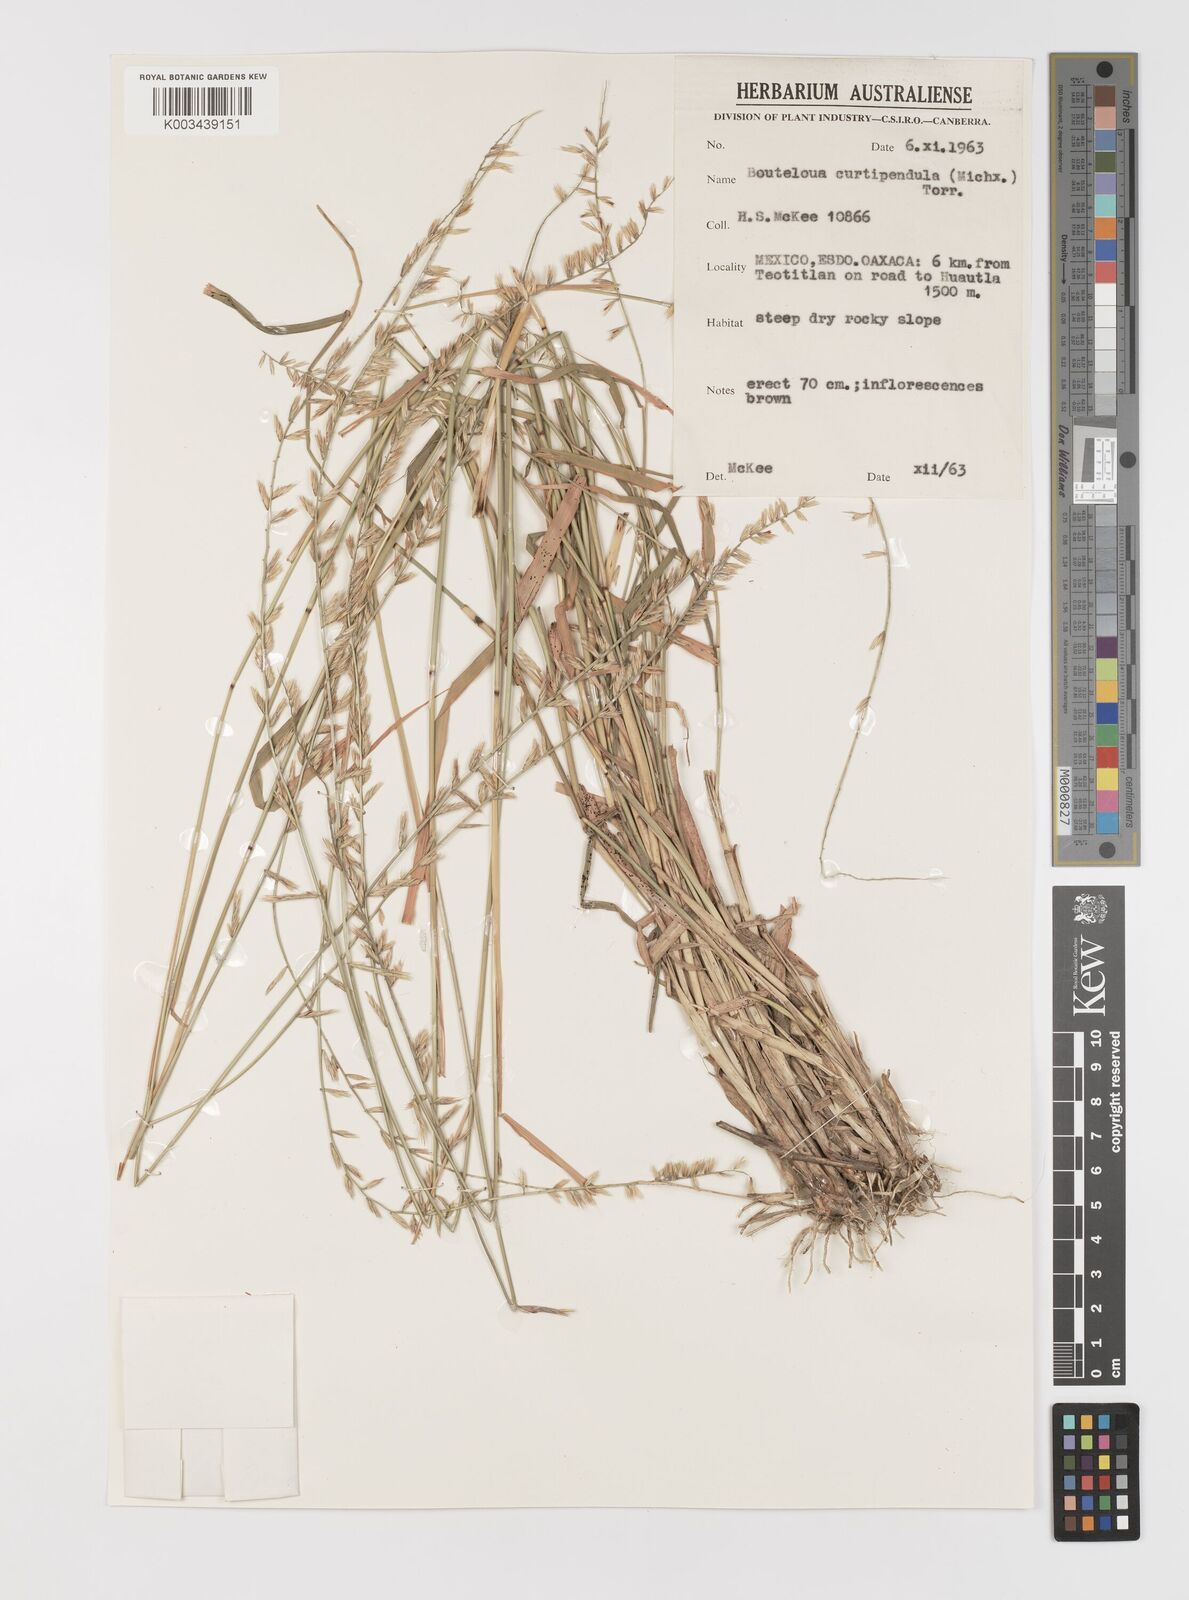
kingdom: Plantae
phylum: Tracheophyta
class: Liliopsida
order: Poales
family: Poaceae
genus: Bouteloua
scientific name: Bouteloua curtipendula
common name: Side-oats grama
